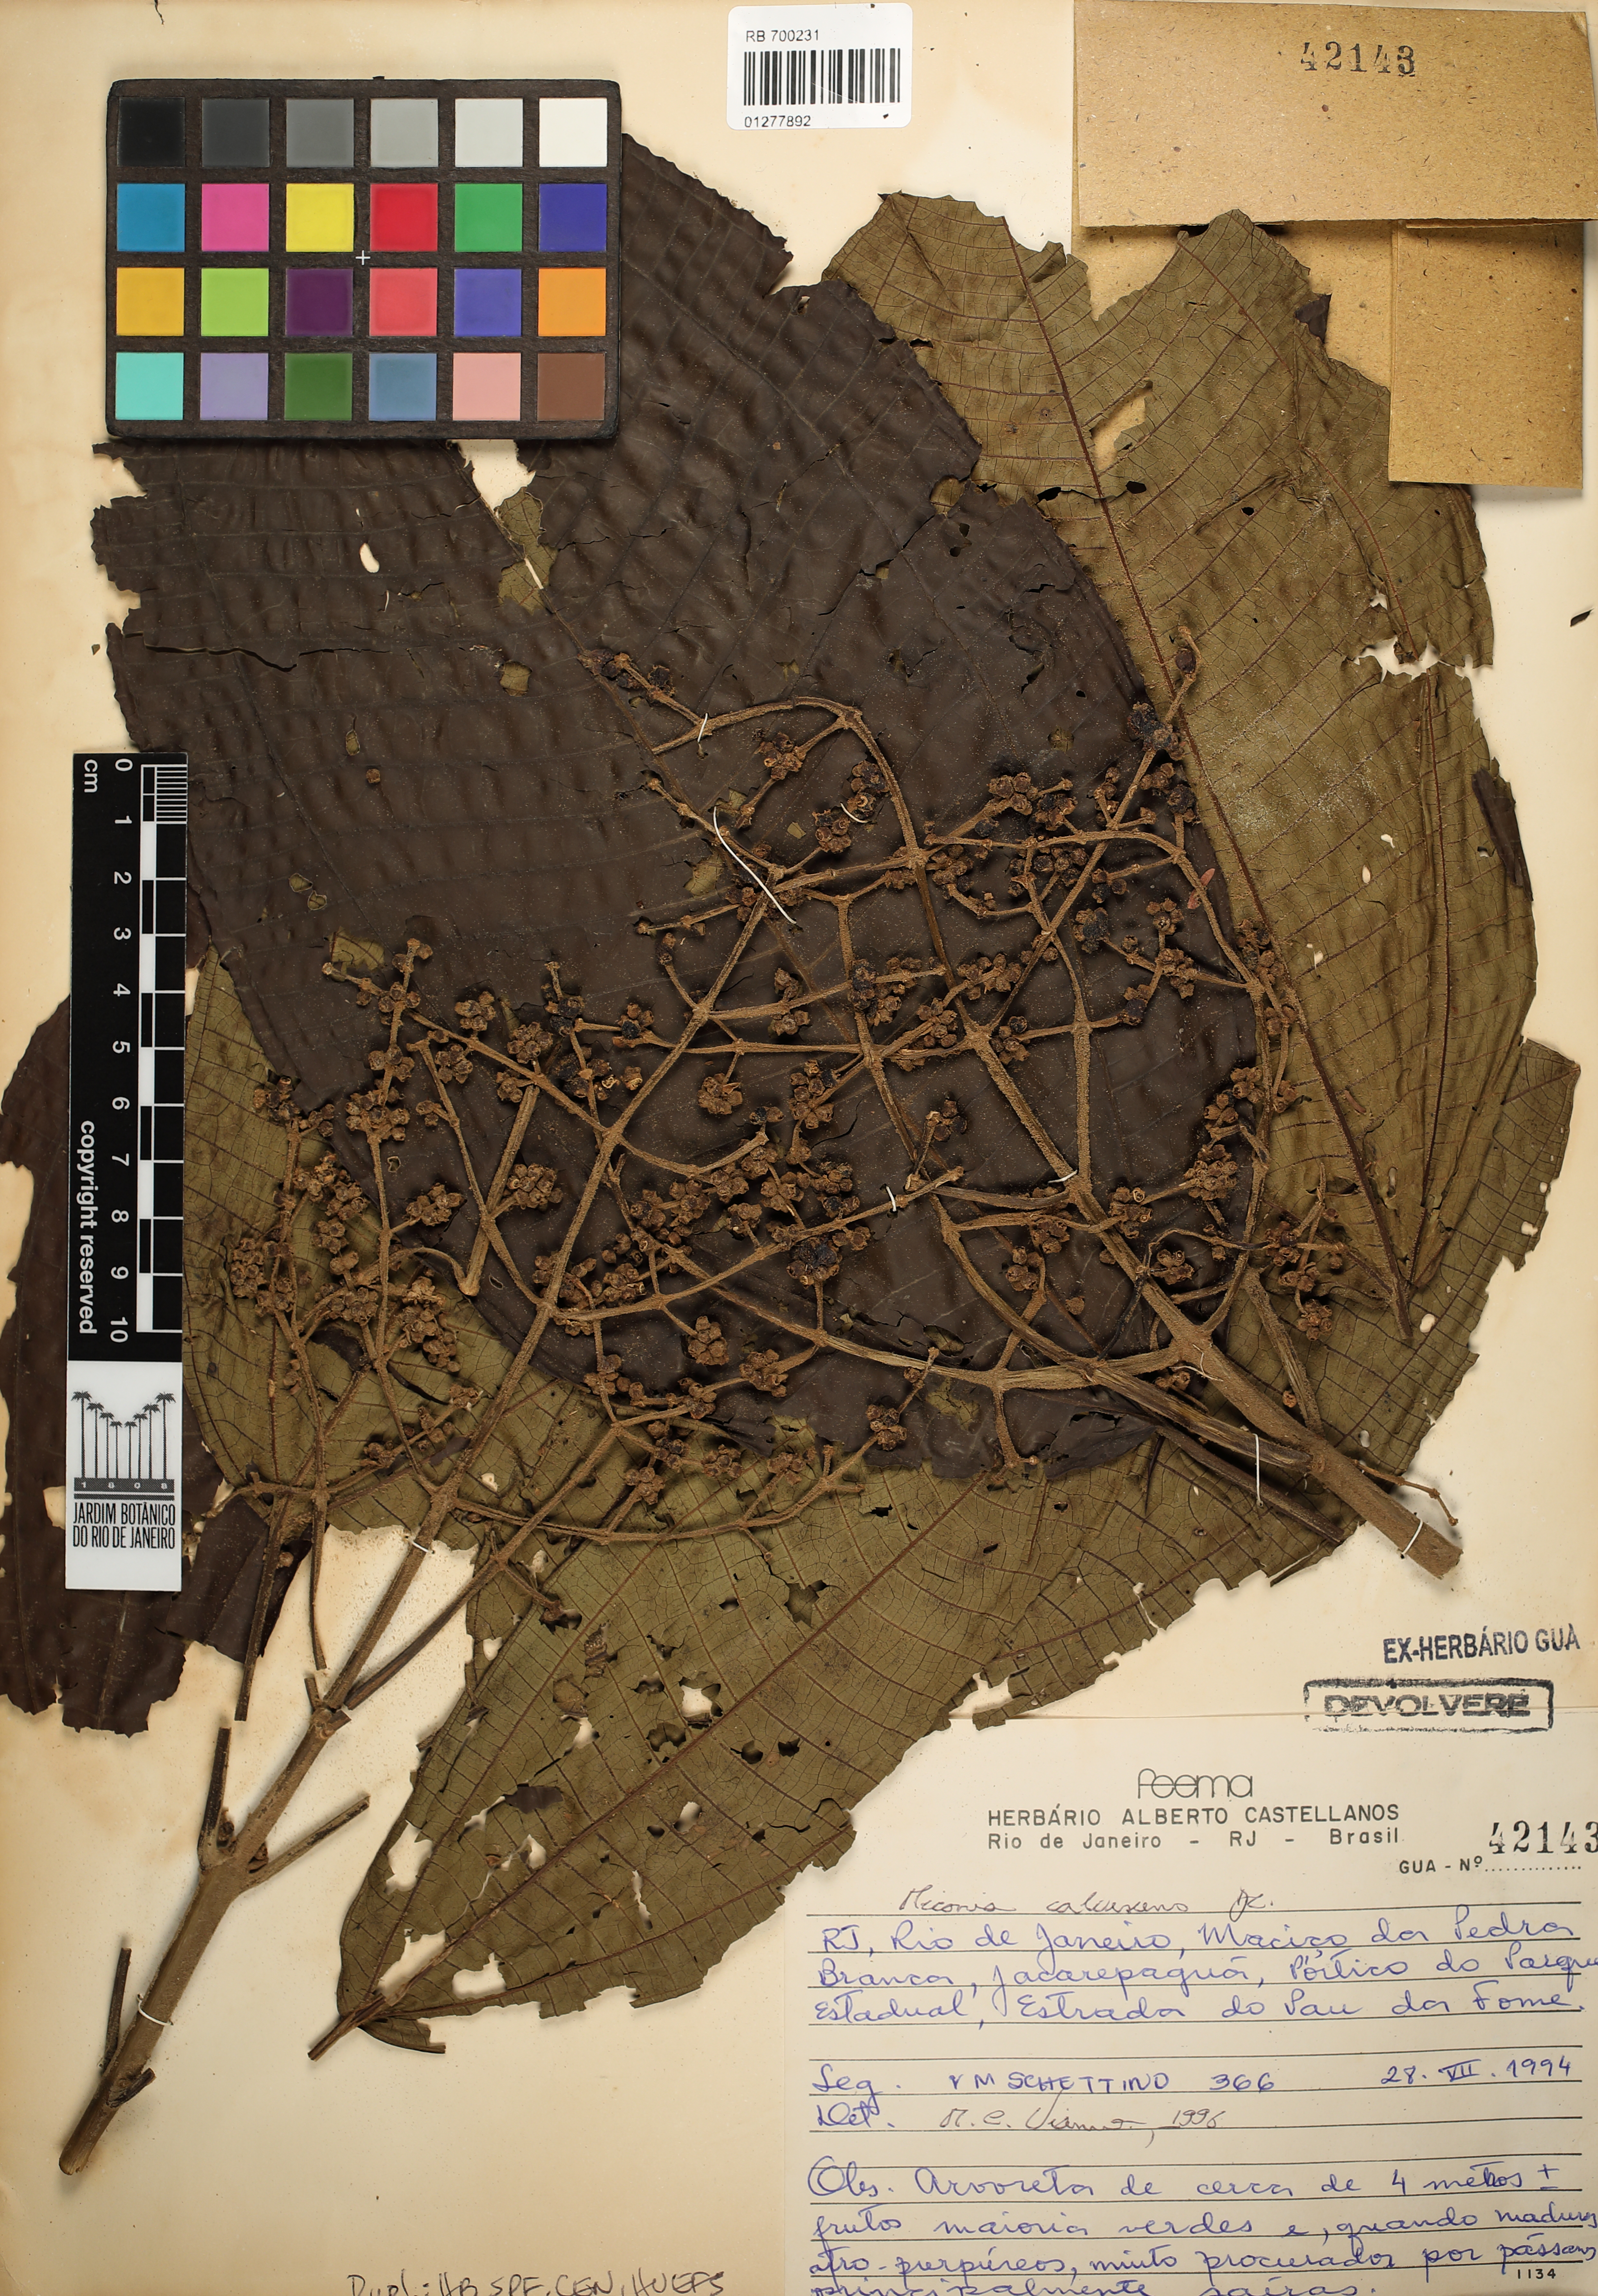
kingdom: Plantae
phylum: Tracheophyta
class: Magnoliopsida
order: Myrtales
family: Melastomataceae
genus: Miconia
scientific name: Miconia calvescens
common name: Purple plague
